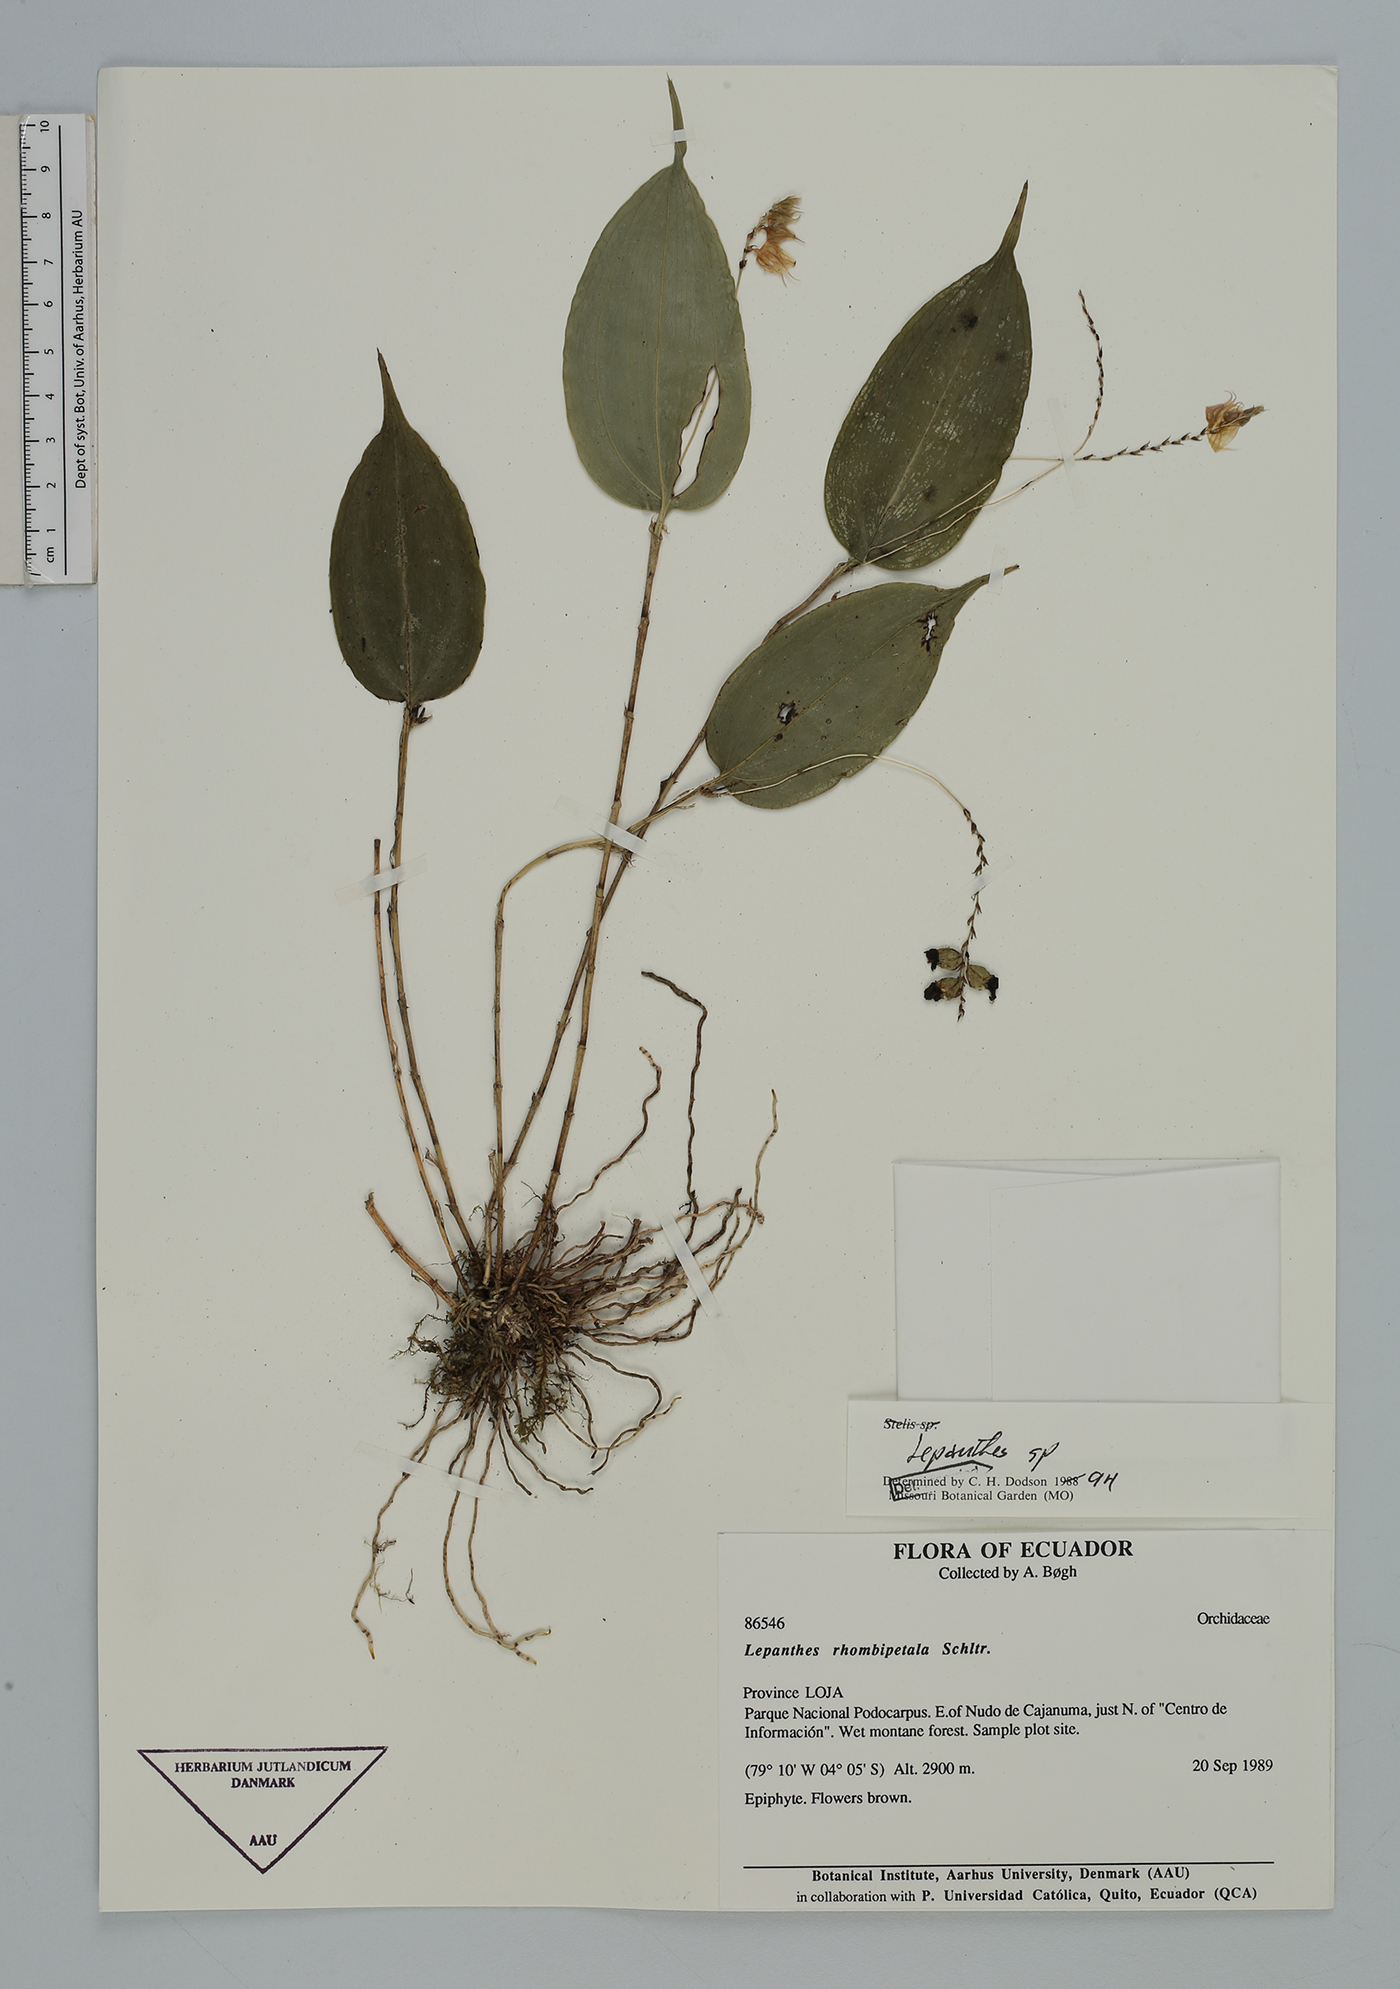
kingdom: Plantae
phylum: Tracheophyta
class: Liliopsida
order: Asparagales
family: Orchidaceae
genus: Lepanthes
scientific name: Lepanthes
